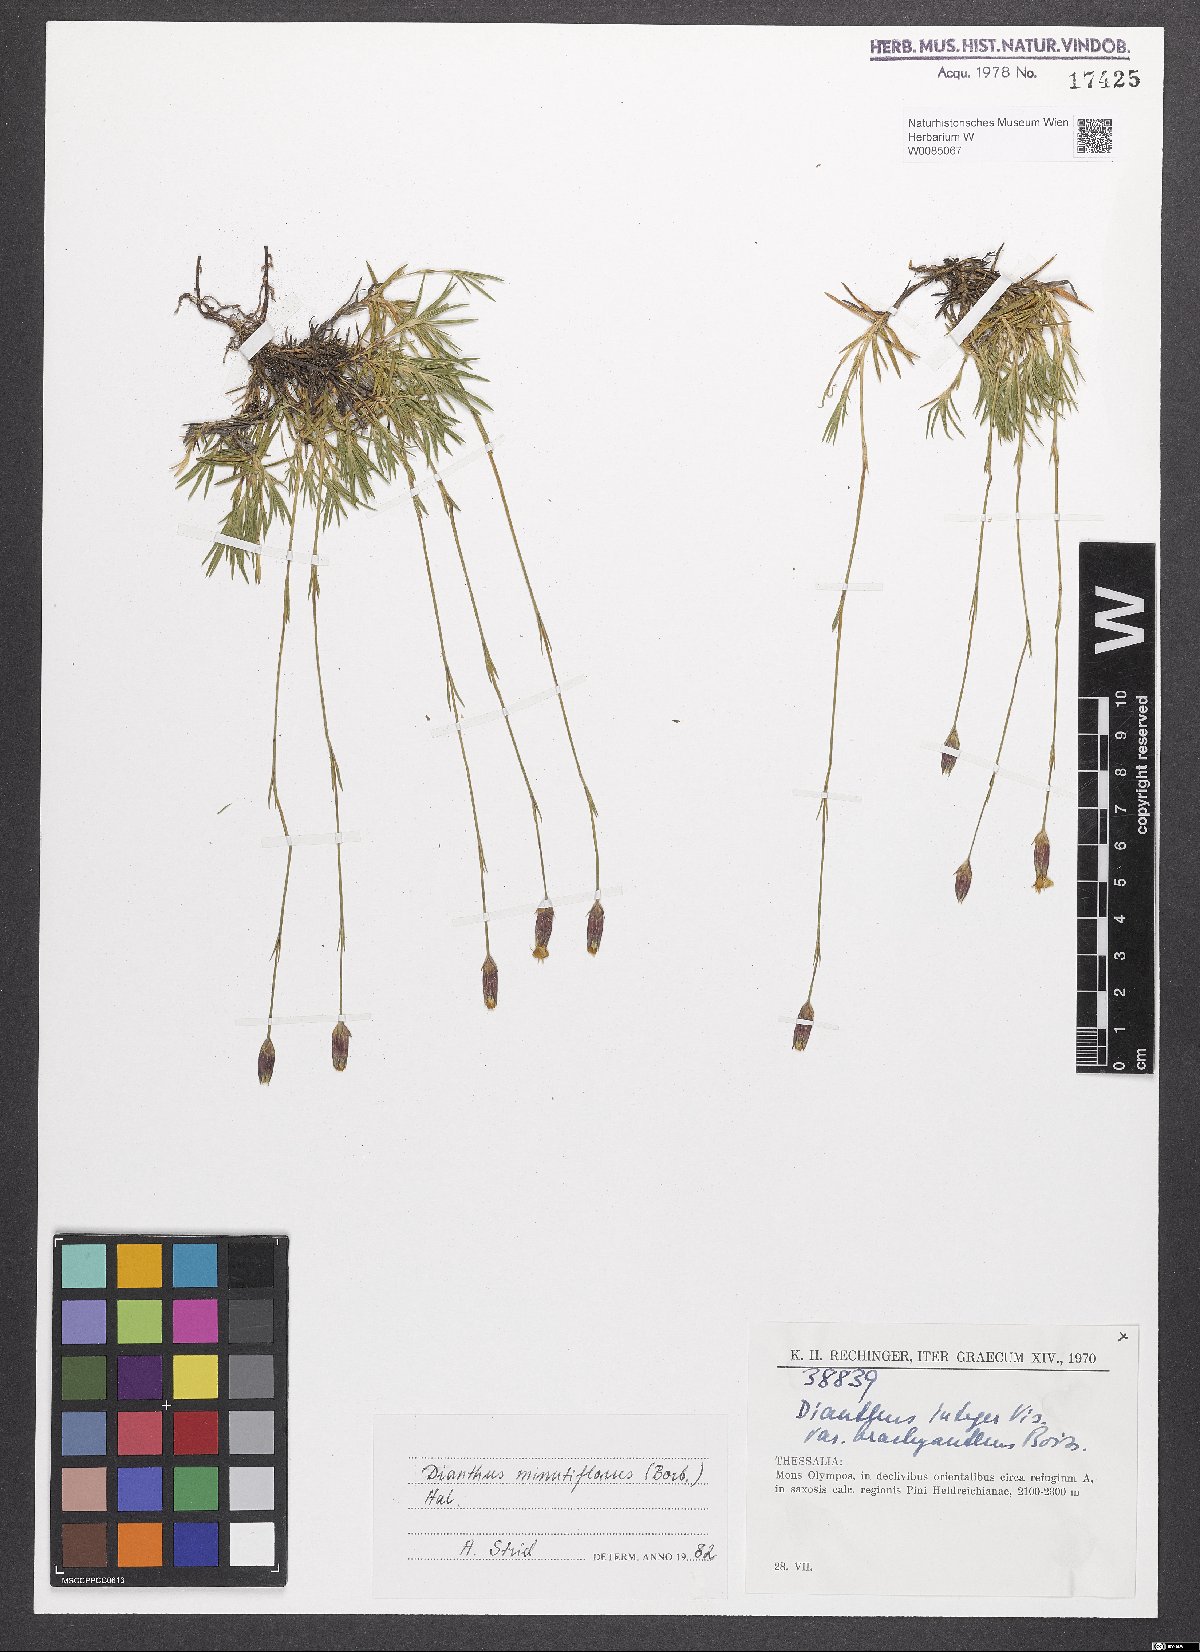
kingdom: Plantae
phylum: Tracheophyta
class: Magnoliopsida
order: Caryophyllales
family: Caryophyllaceae
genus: Dianthus
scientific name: Dianthus integer
